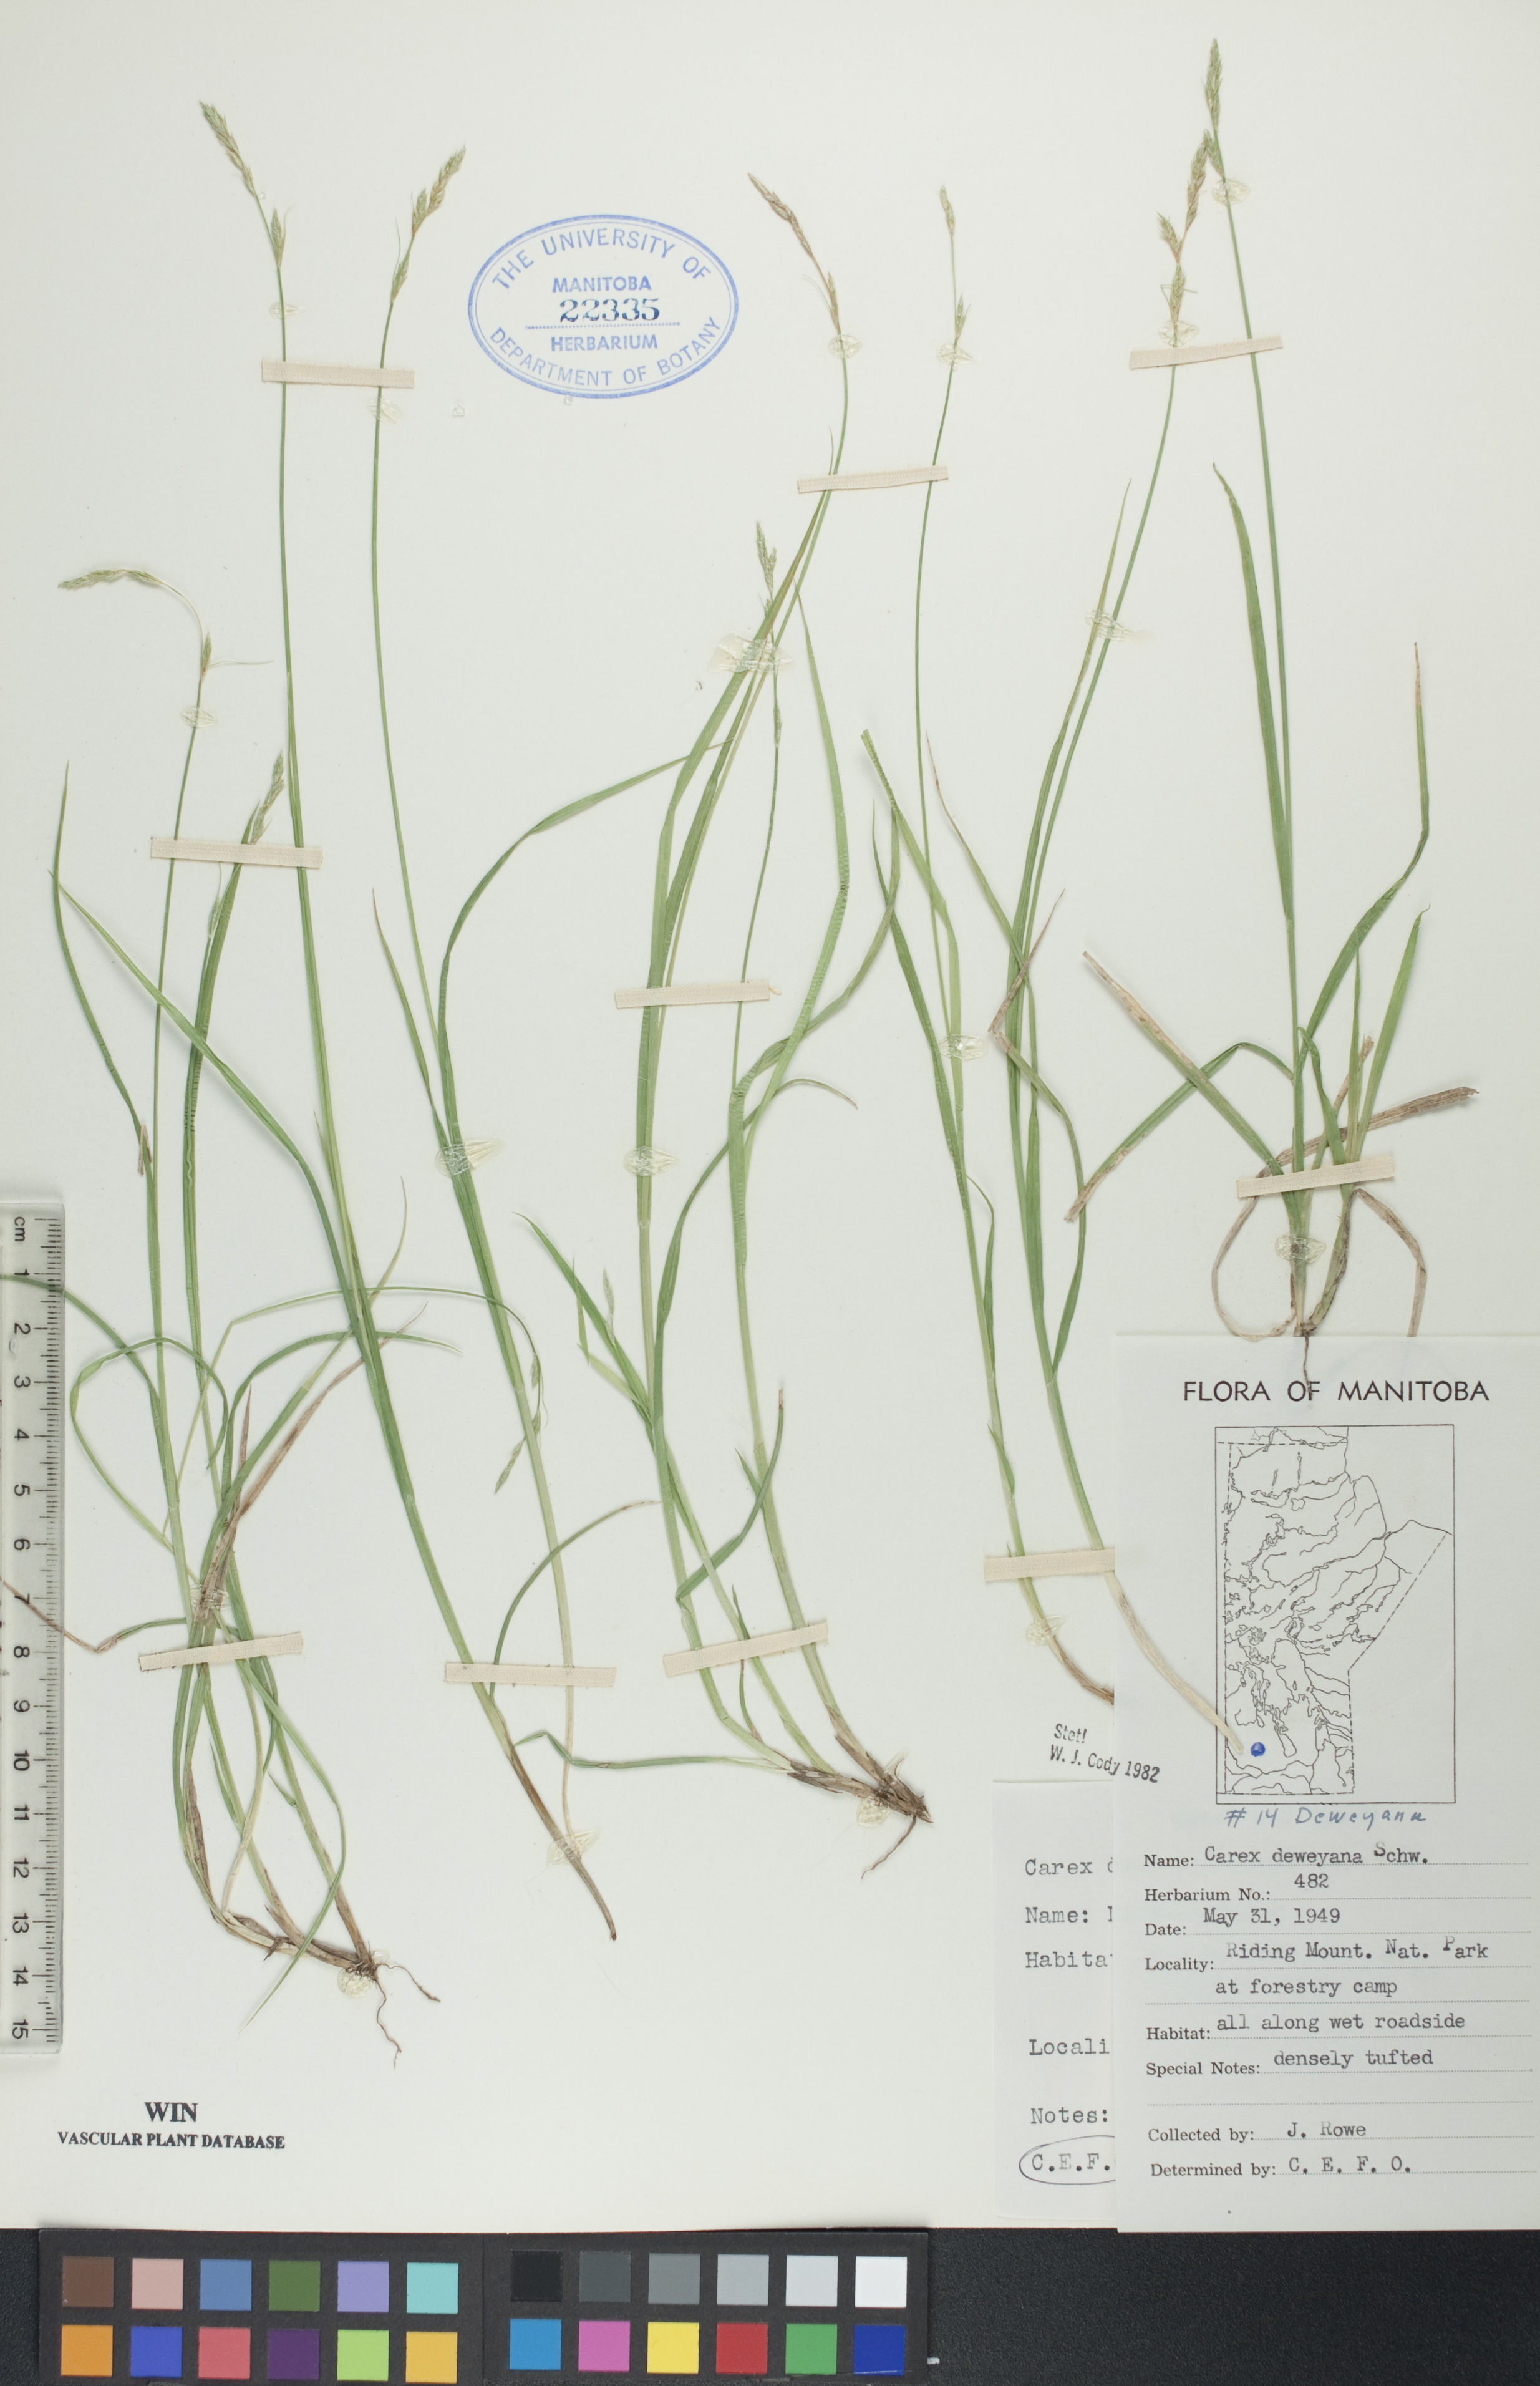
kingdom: Plantae
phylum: Tracheophyta
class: Liliopsida
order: Poales
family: Cyperaceae
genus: Carex
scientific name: Carex deweyana
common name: Dewey's sedge
